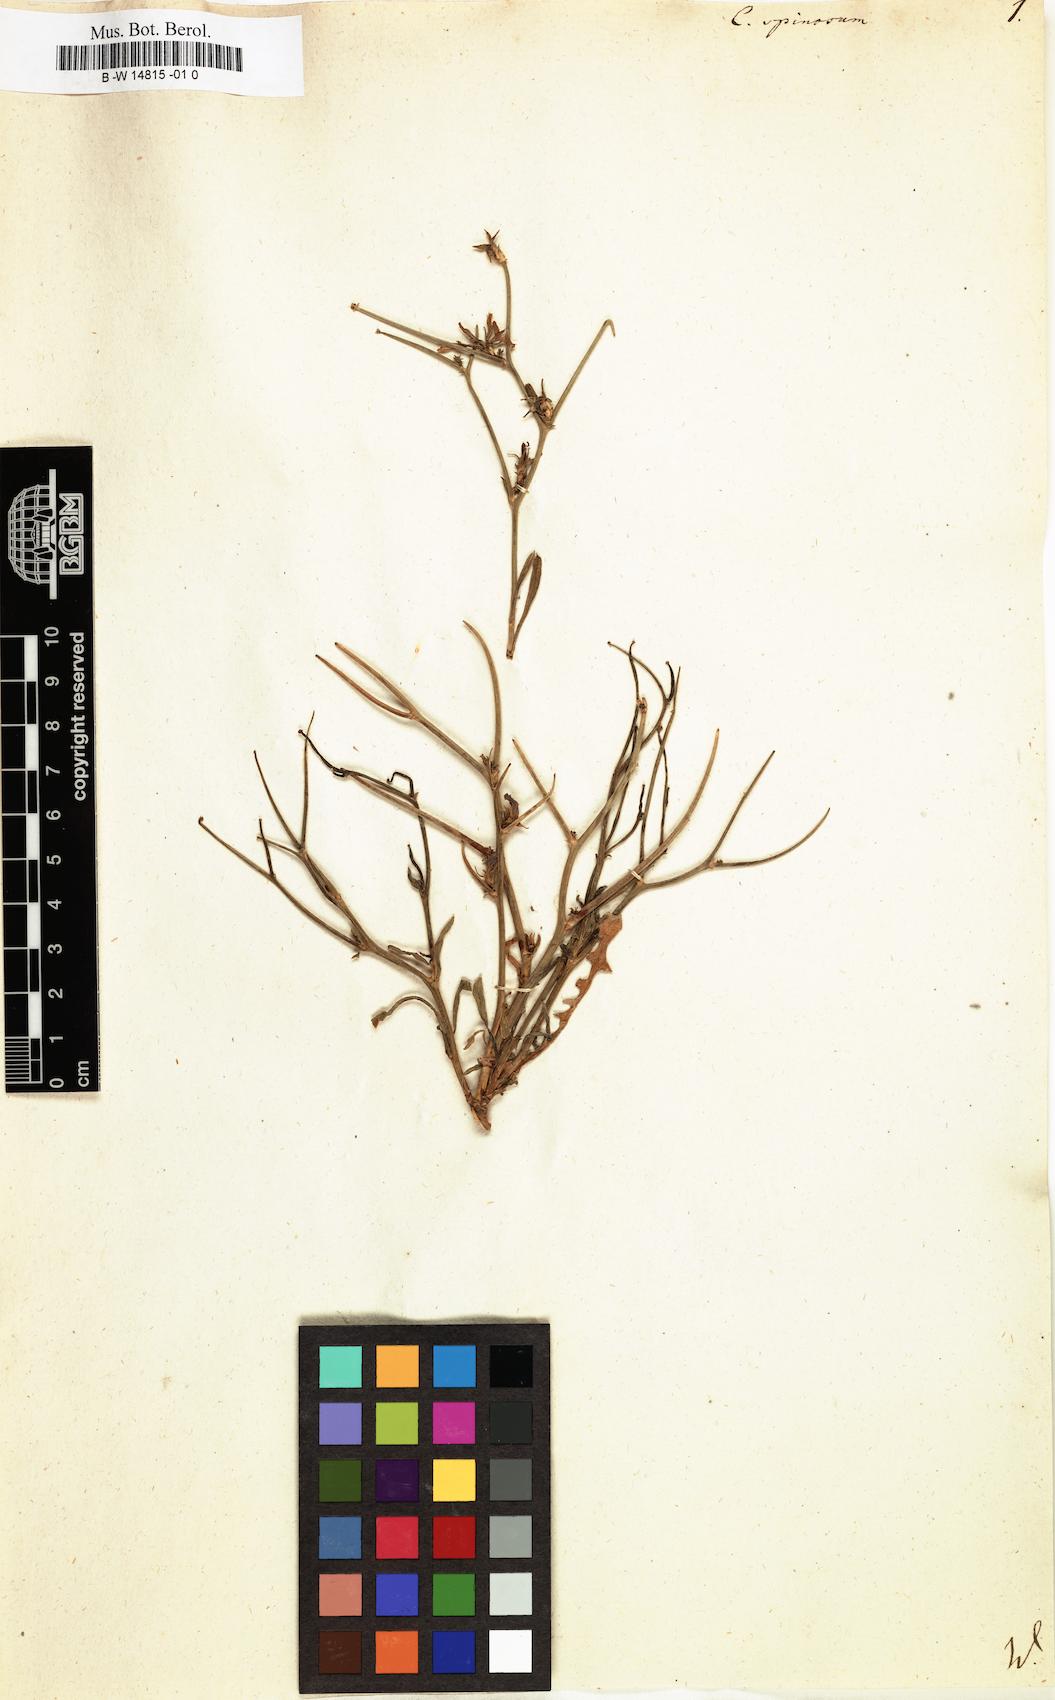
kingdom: Plantae
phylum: Tracheophyta
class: Magnoliopsida
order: Asterales
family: Asteraceae
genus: Cichorium
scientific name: Cichorium spinosum
